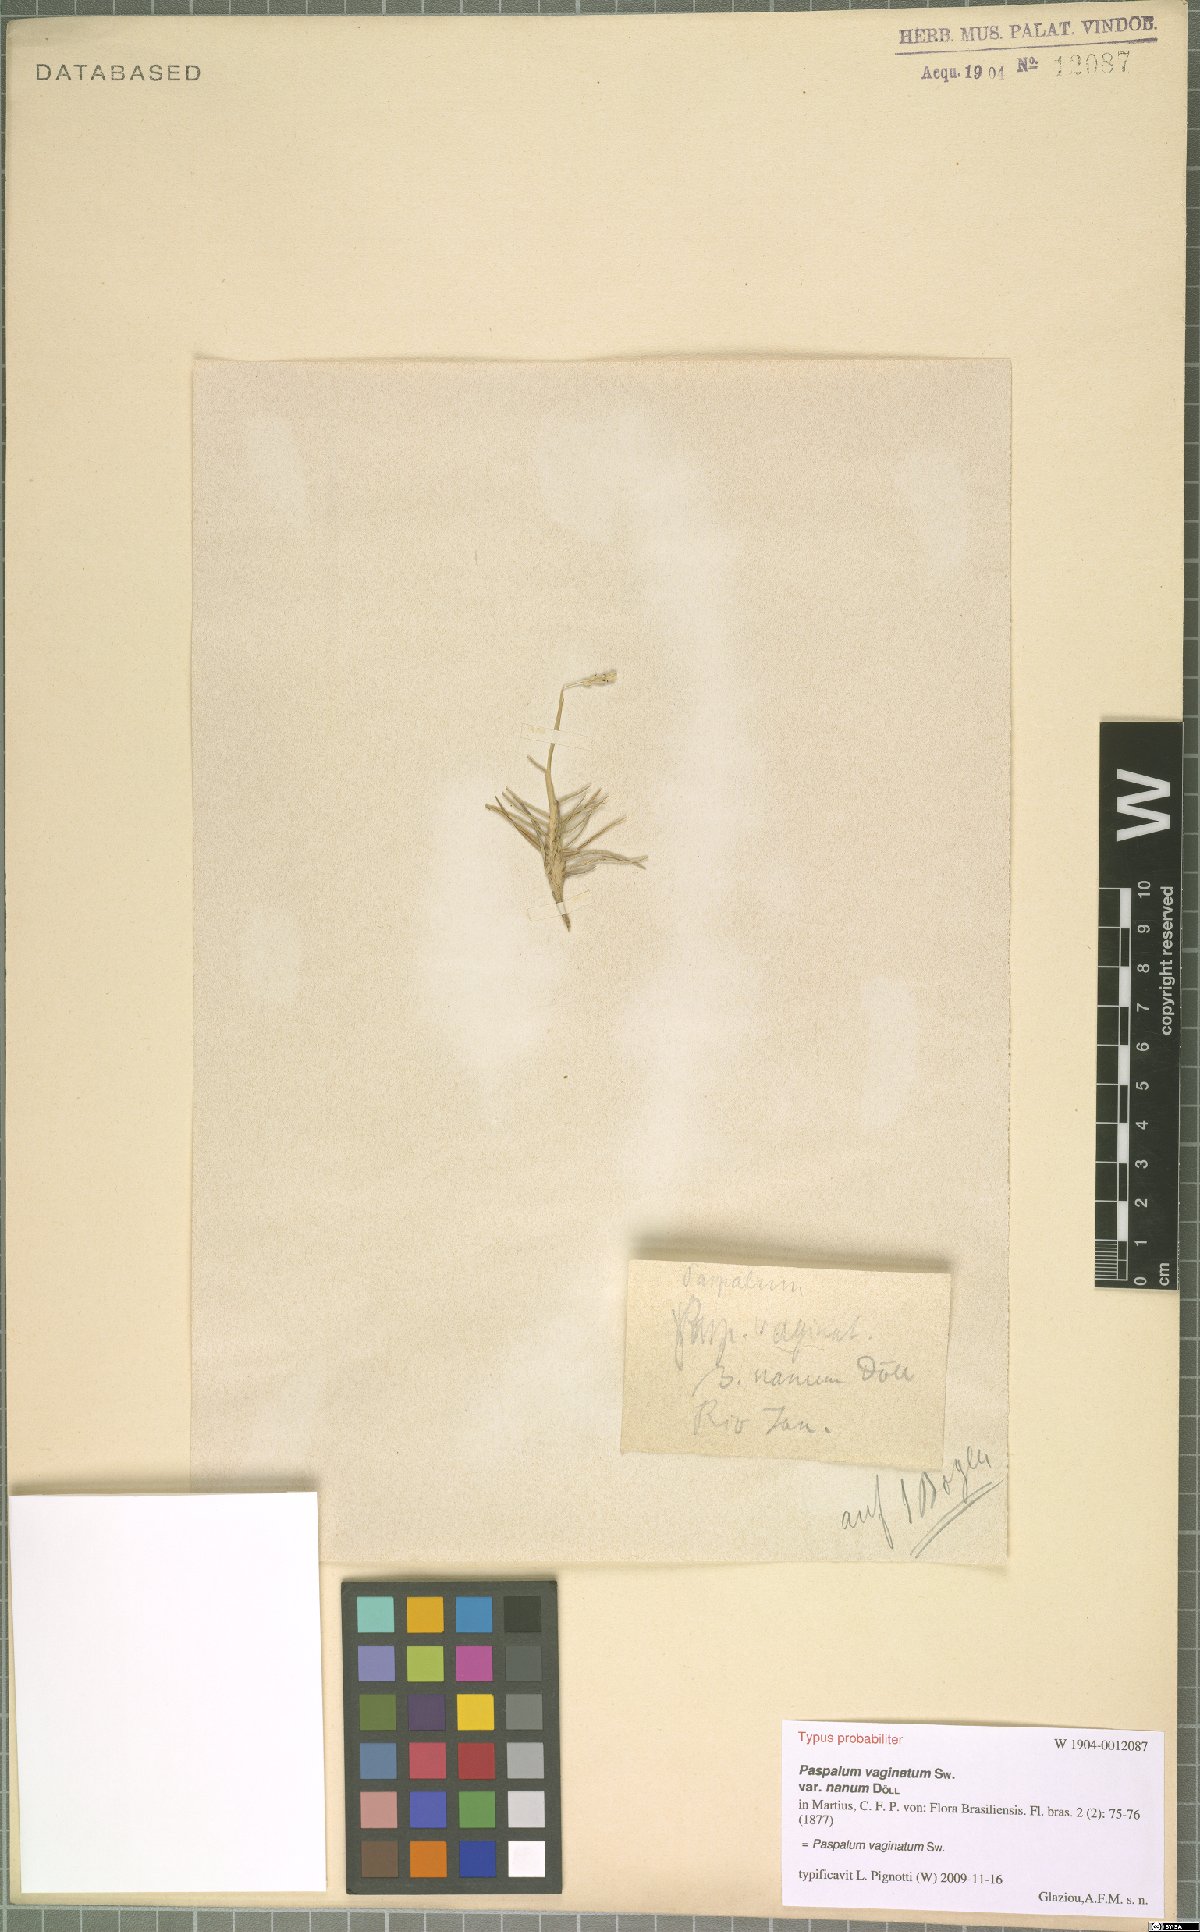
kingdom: Plantae
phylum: Tracheophyta
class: Liliopsida
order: Poales
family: Poaceae
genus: Paspalum
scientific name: Paspalum vaginatum
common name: Seashore paspalum
